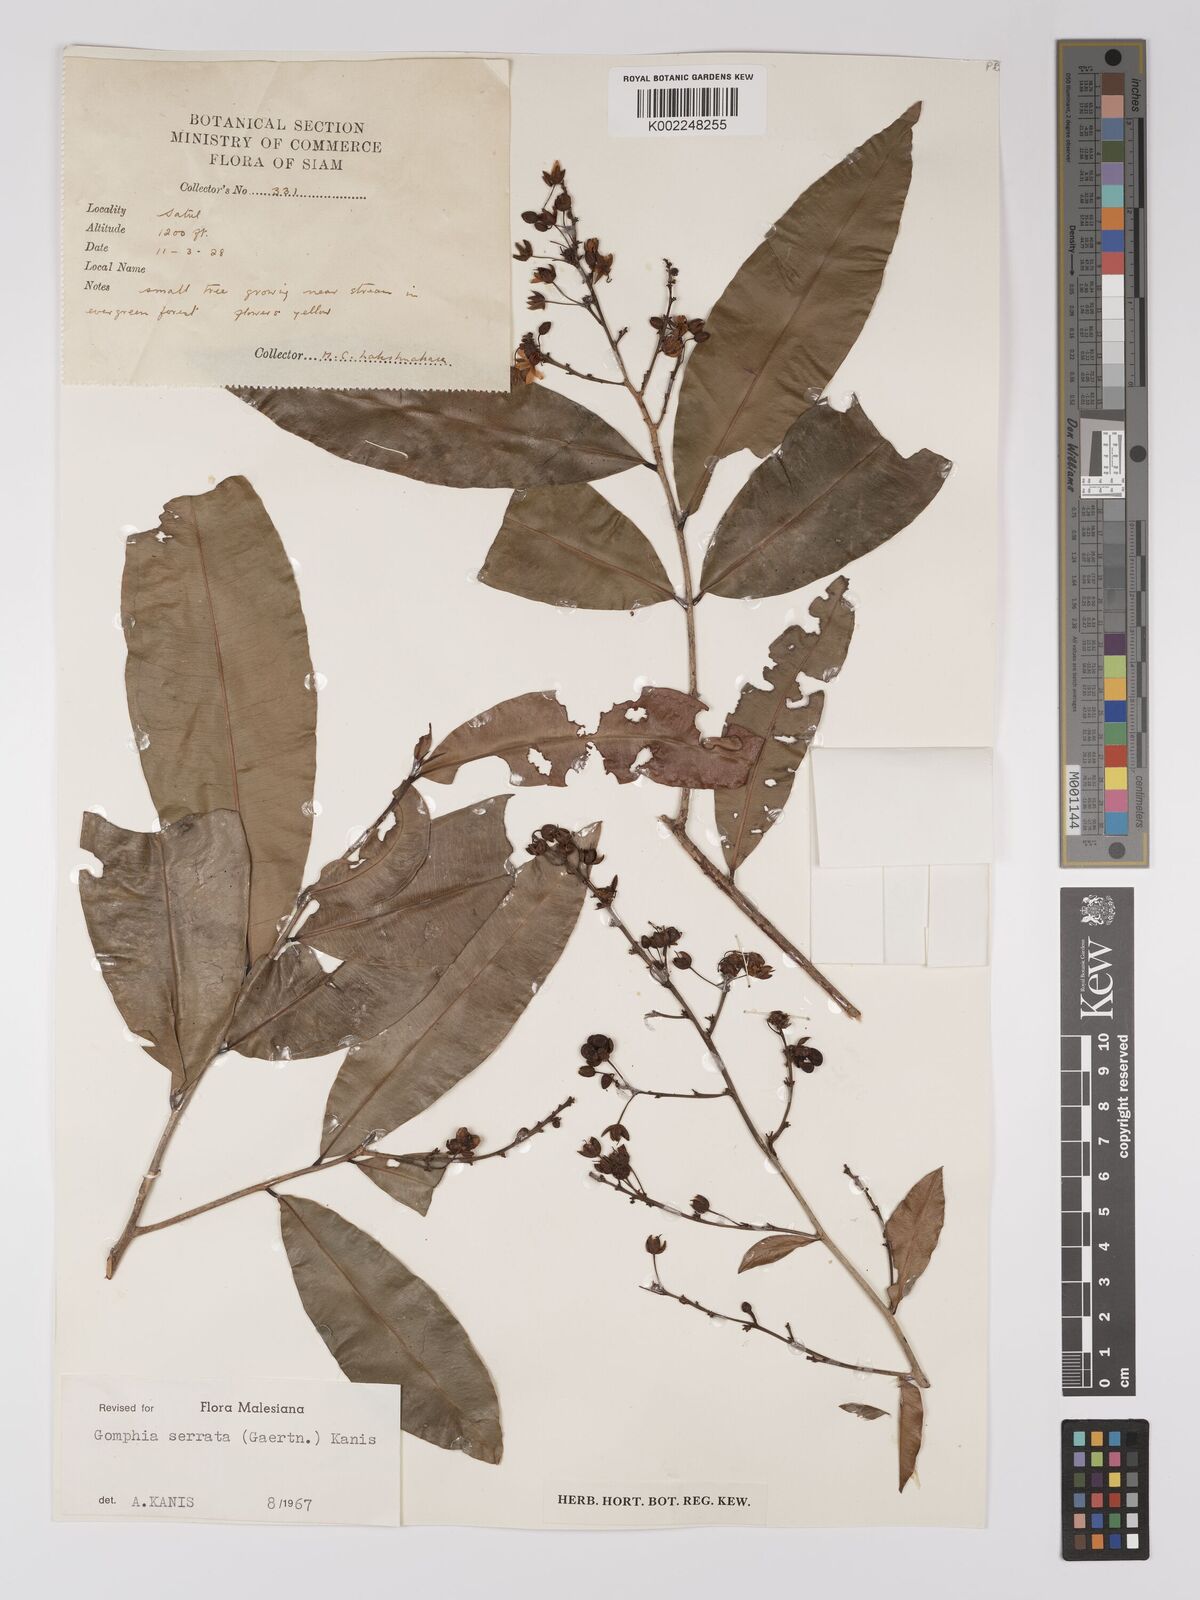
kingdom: Plantae
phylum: Tracheophyta
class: Magnoliopsida
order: Malpighiales
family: Ochnaceae
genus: Gomphia
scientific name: Gomphia serrata
